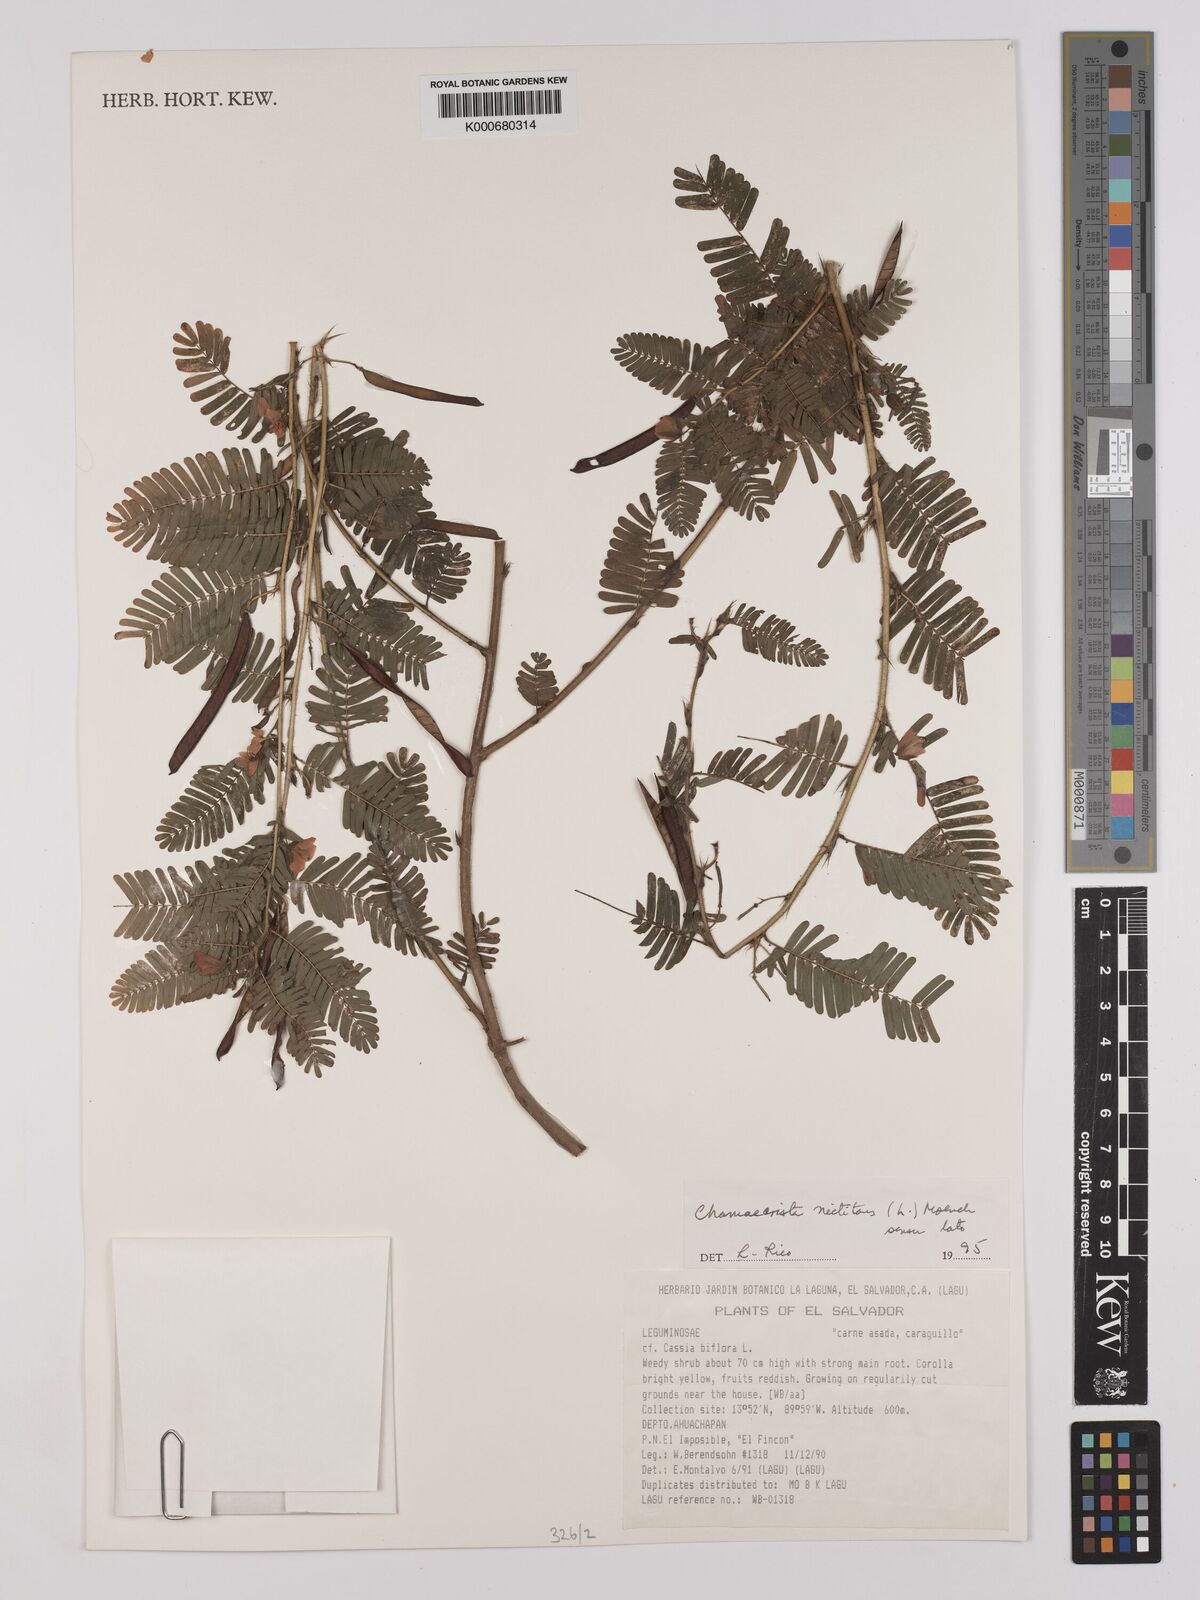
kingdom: Plantae
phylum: Tracheophyta
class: Magnoliopsida
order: Fabales
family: Fabaceae
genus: Chamaecrista
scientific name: Chamaecrista nictitans
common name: Sensitive cassia
